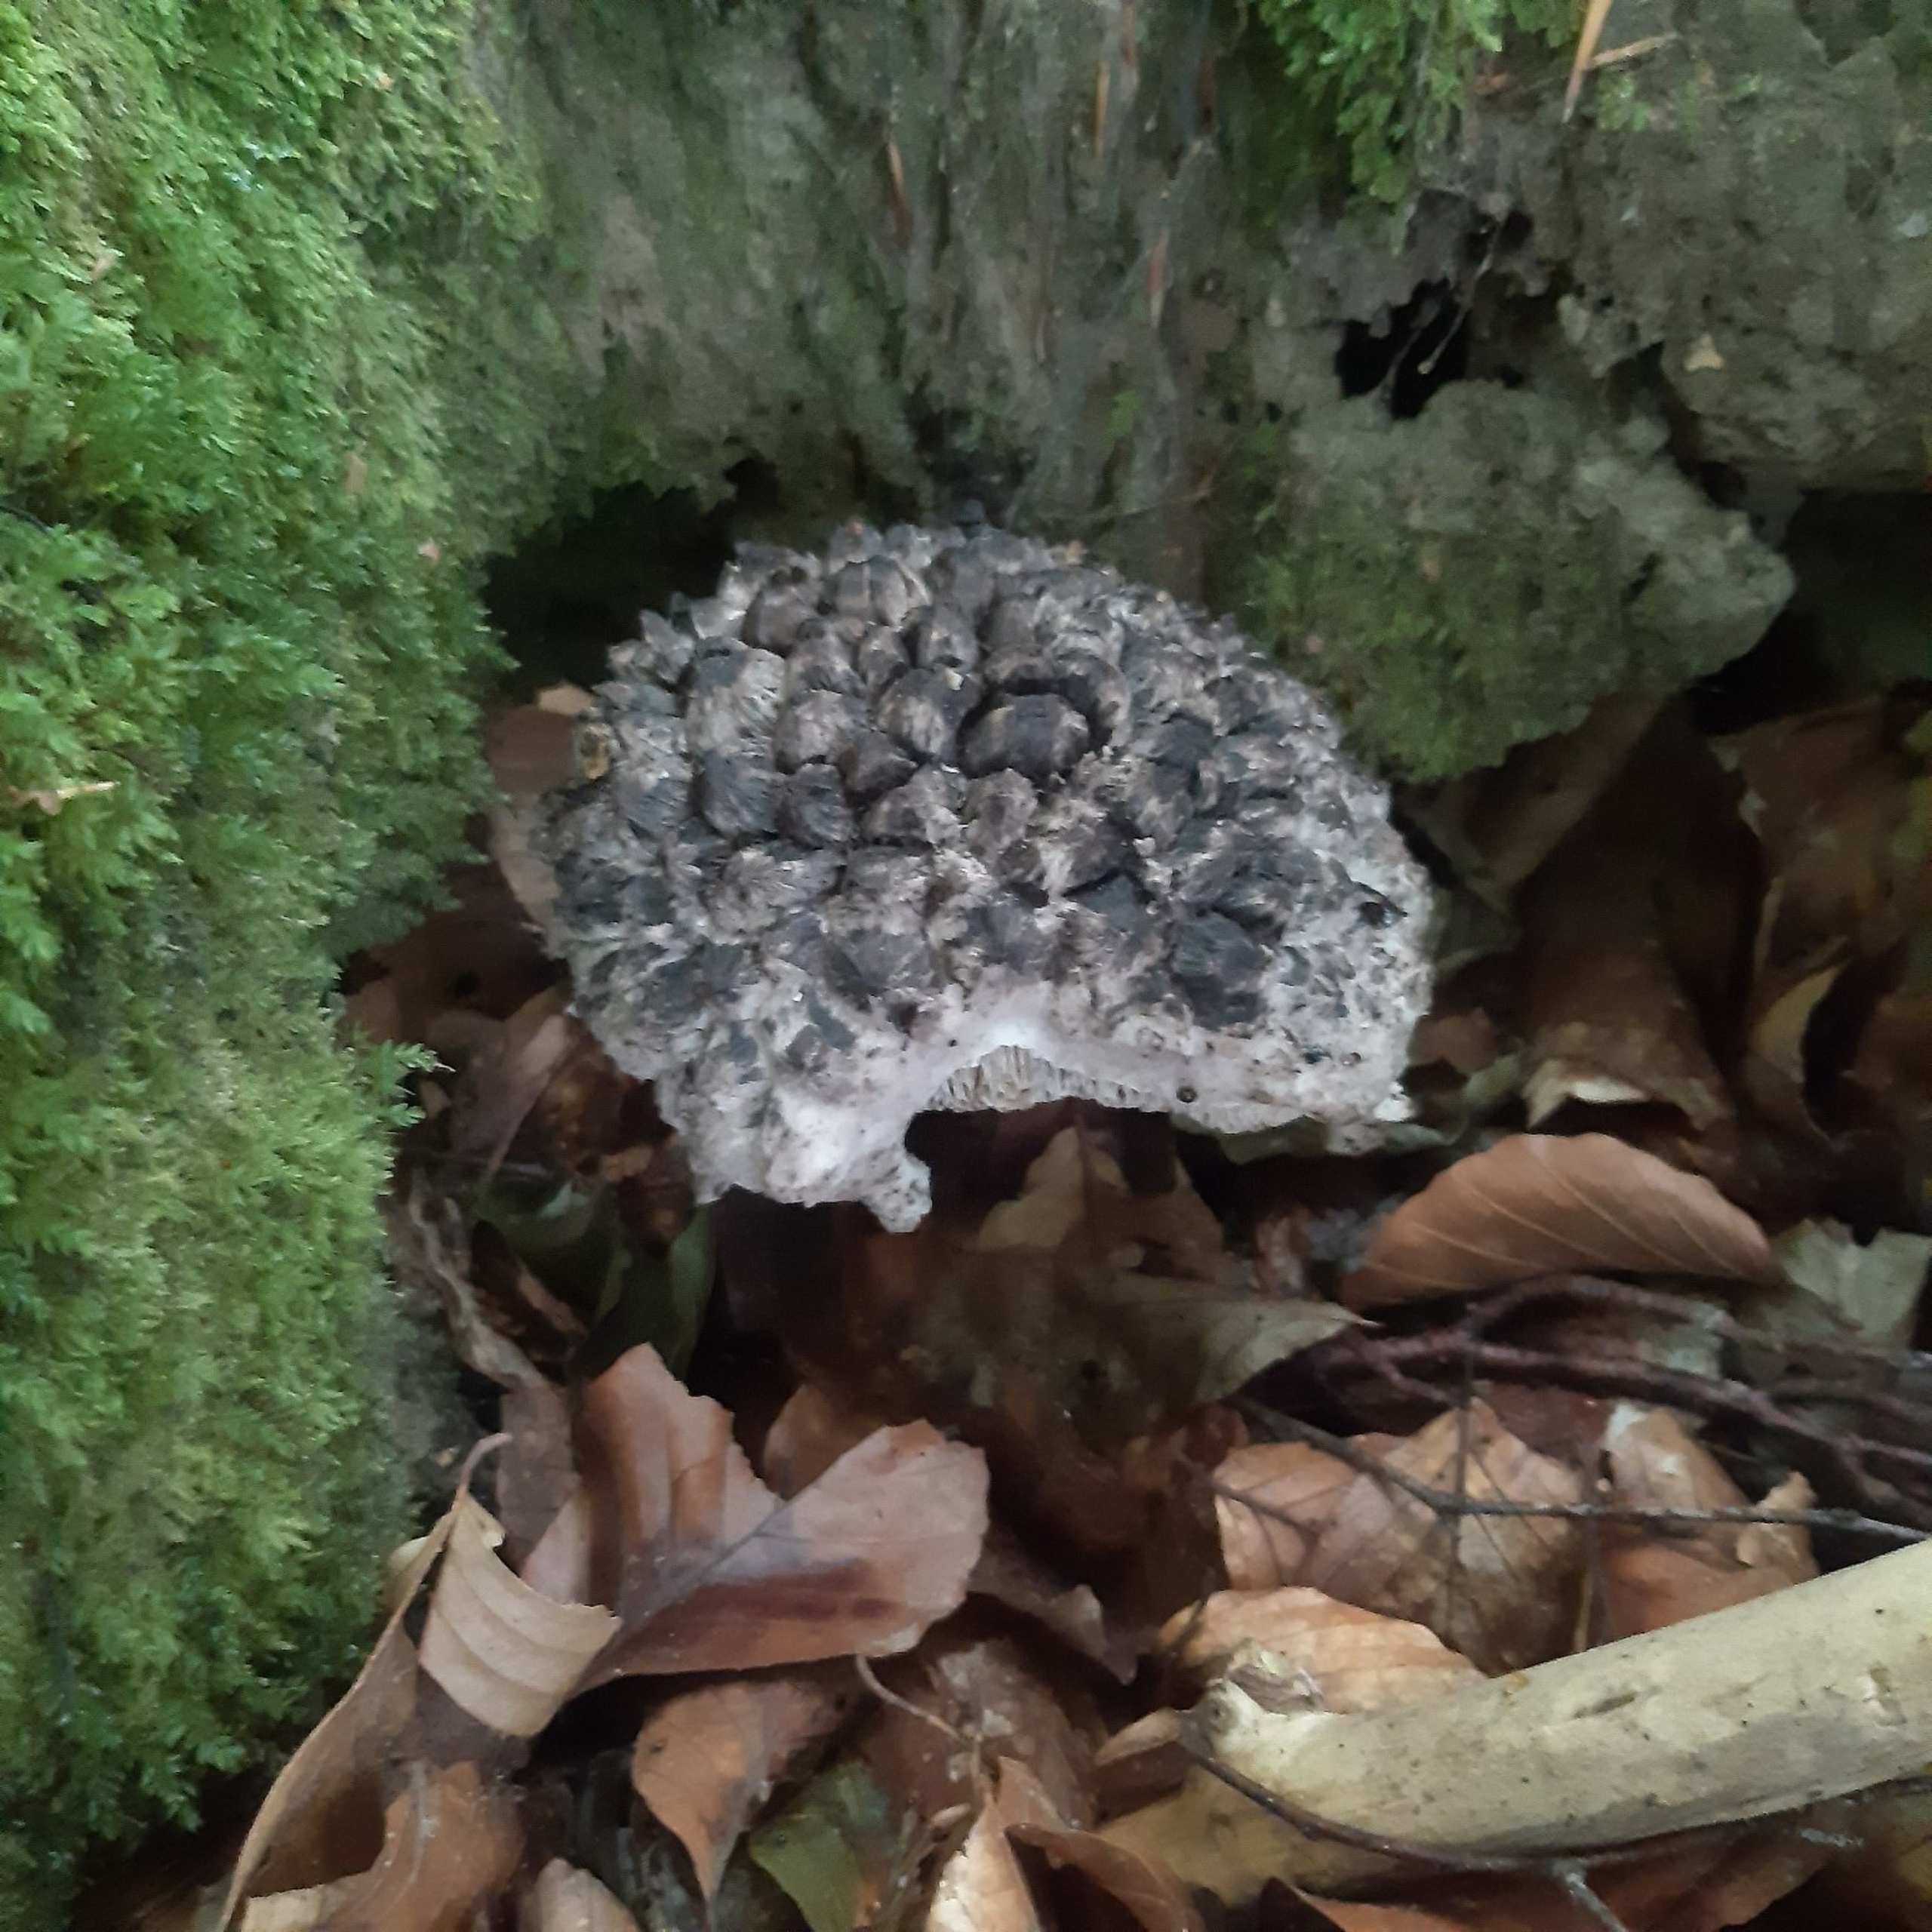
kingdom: Fungi
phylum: Basidiomycota
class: Agaricomycetes
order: Boletales
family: Boletaceae
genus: Strobilomyces
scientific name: Strobilomyces
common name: Koglerørhat
